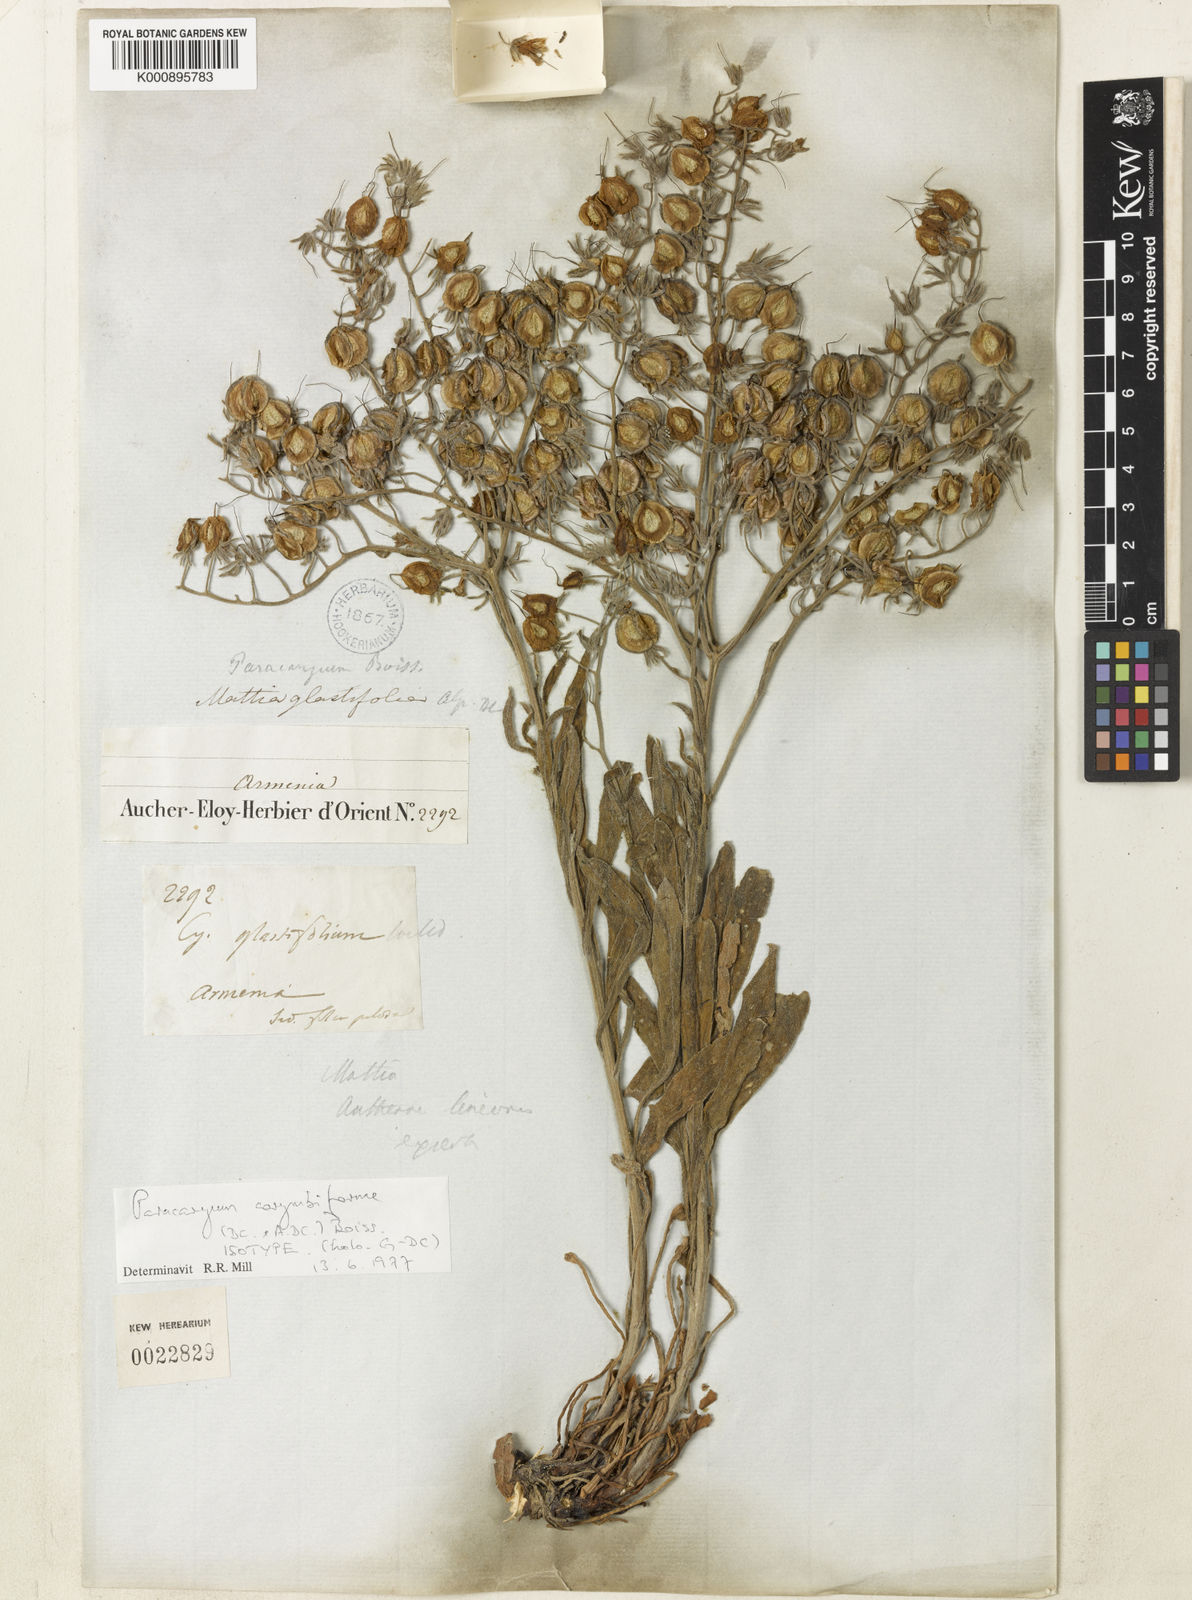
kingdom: Plantae
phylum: Tracheophyta
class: Magnoliopsida
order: Boraginales
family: Boraginaceae
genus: Paracaryum
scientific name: Paracaryum corymbiforme
